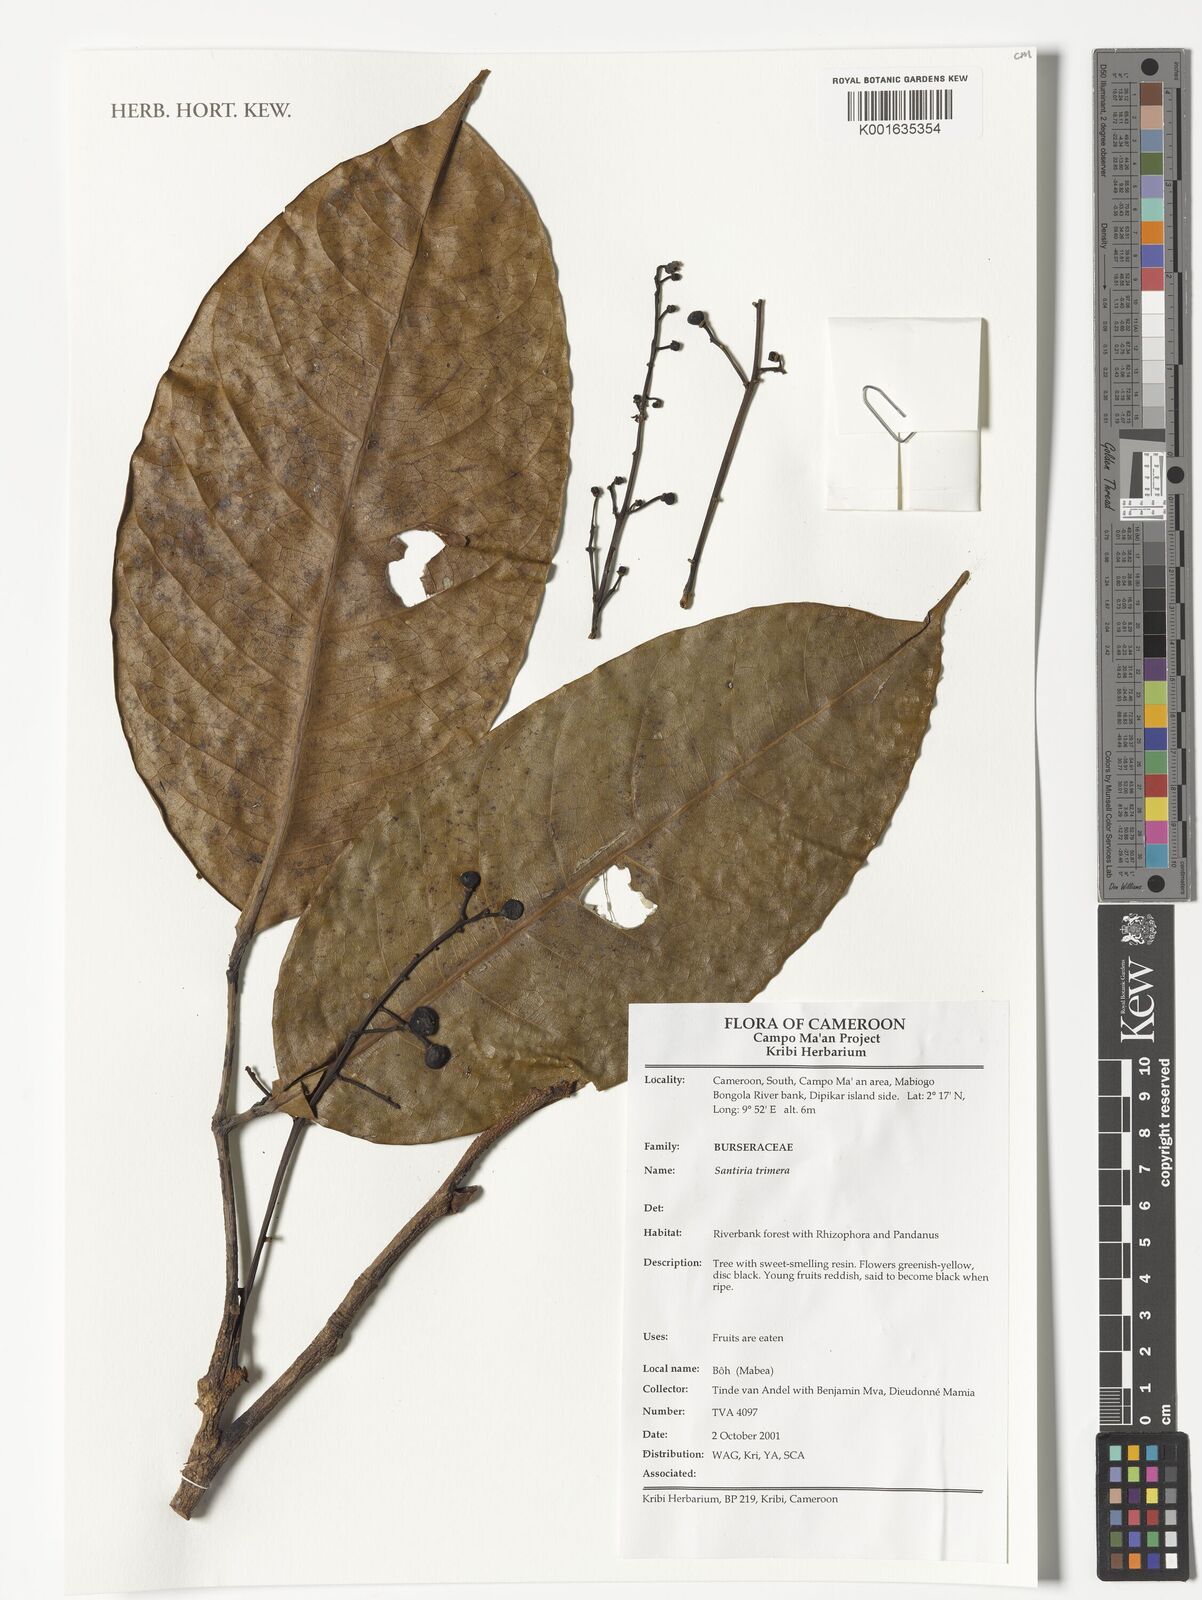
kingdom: Plantae
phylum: Tracheophyta
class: Magnoliopsida
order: Sapindales
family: Burseraceae
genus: Pachylobus
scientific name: Pachylobus trimerus
